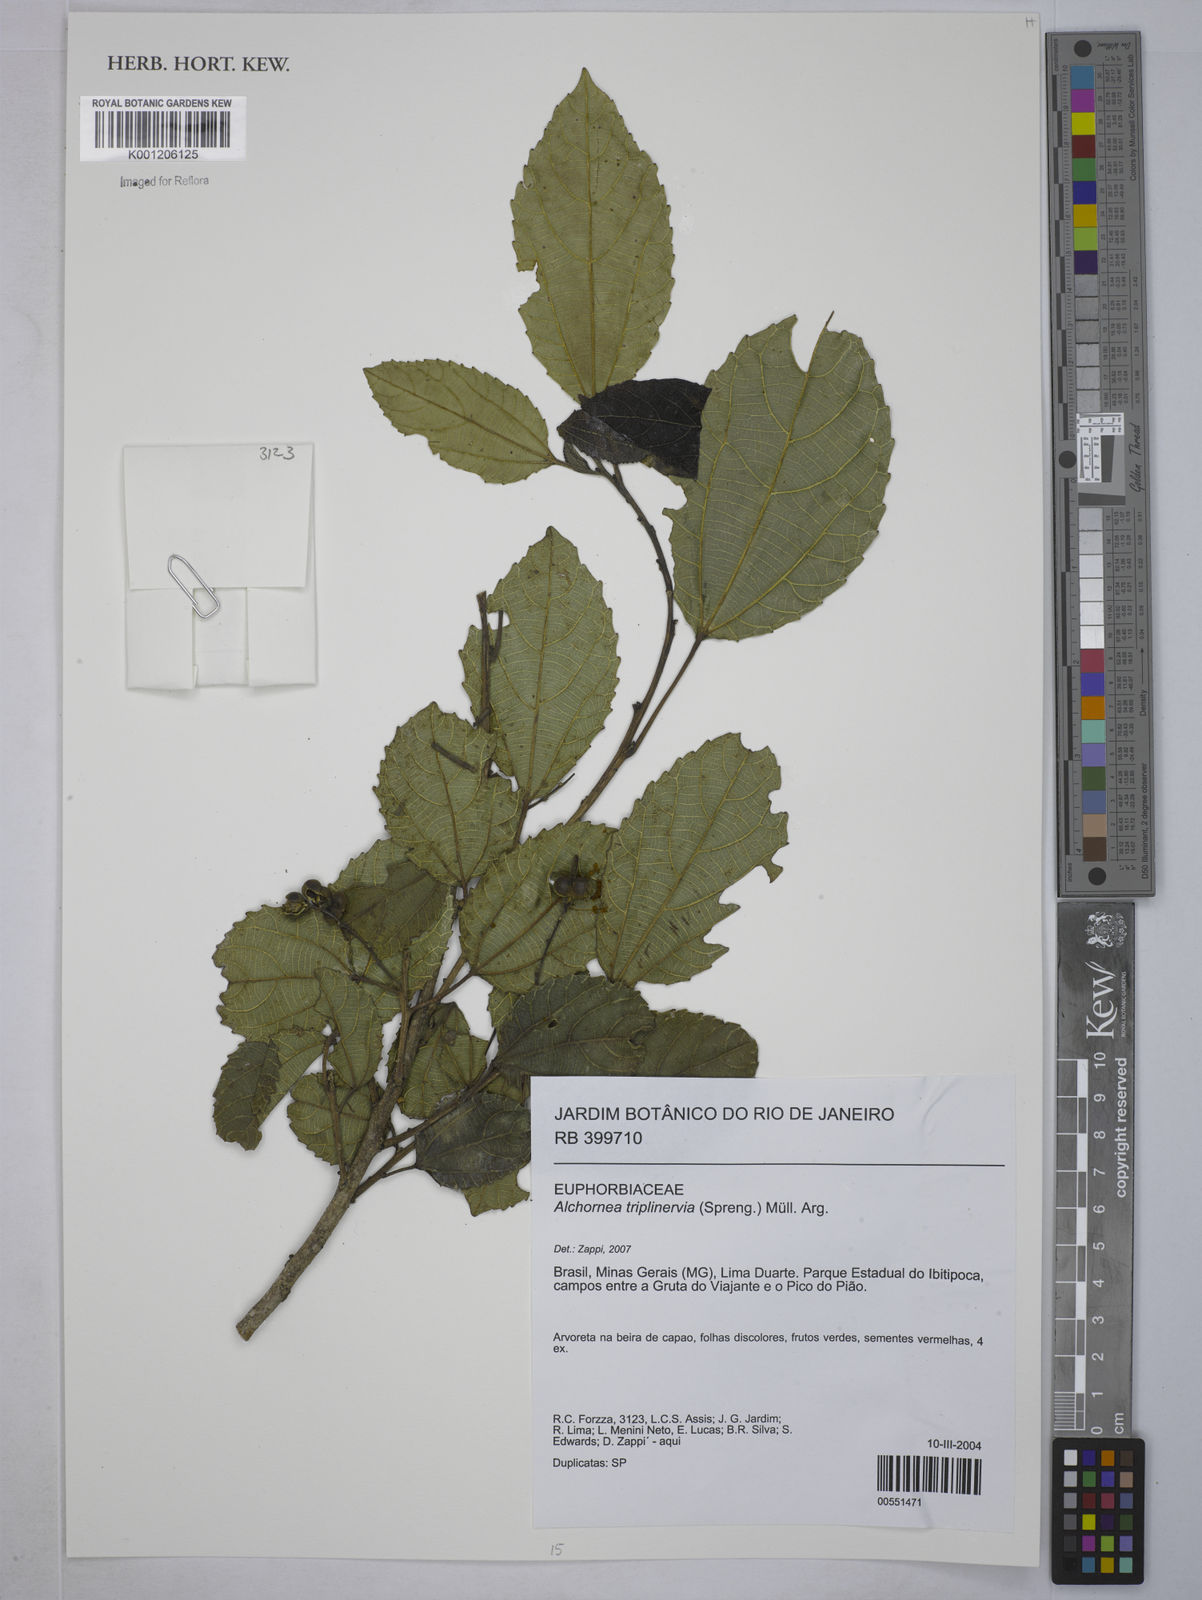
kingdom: Plantae
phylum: Tracheophyta
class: Magnoliopsida
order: Malpighiales
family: Euphorbiaceae
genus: Alchornea
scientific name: Alchornea
